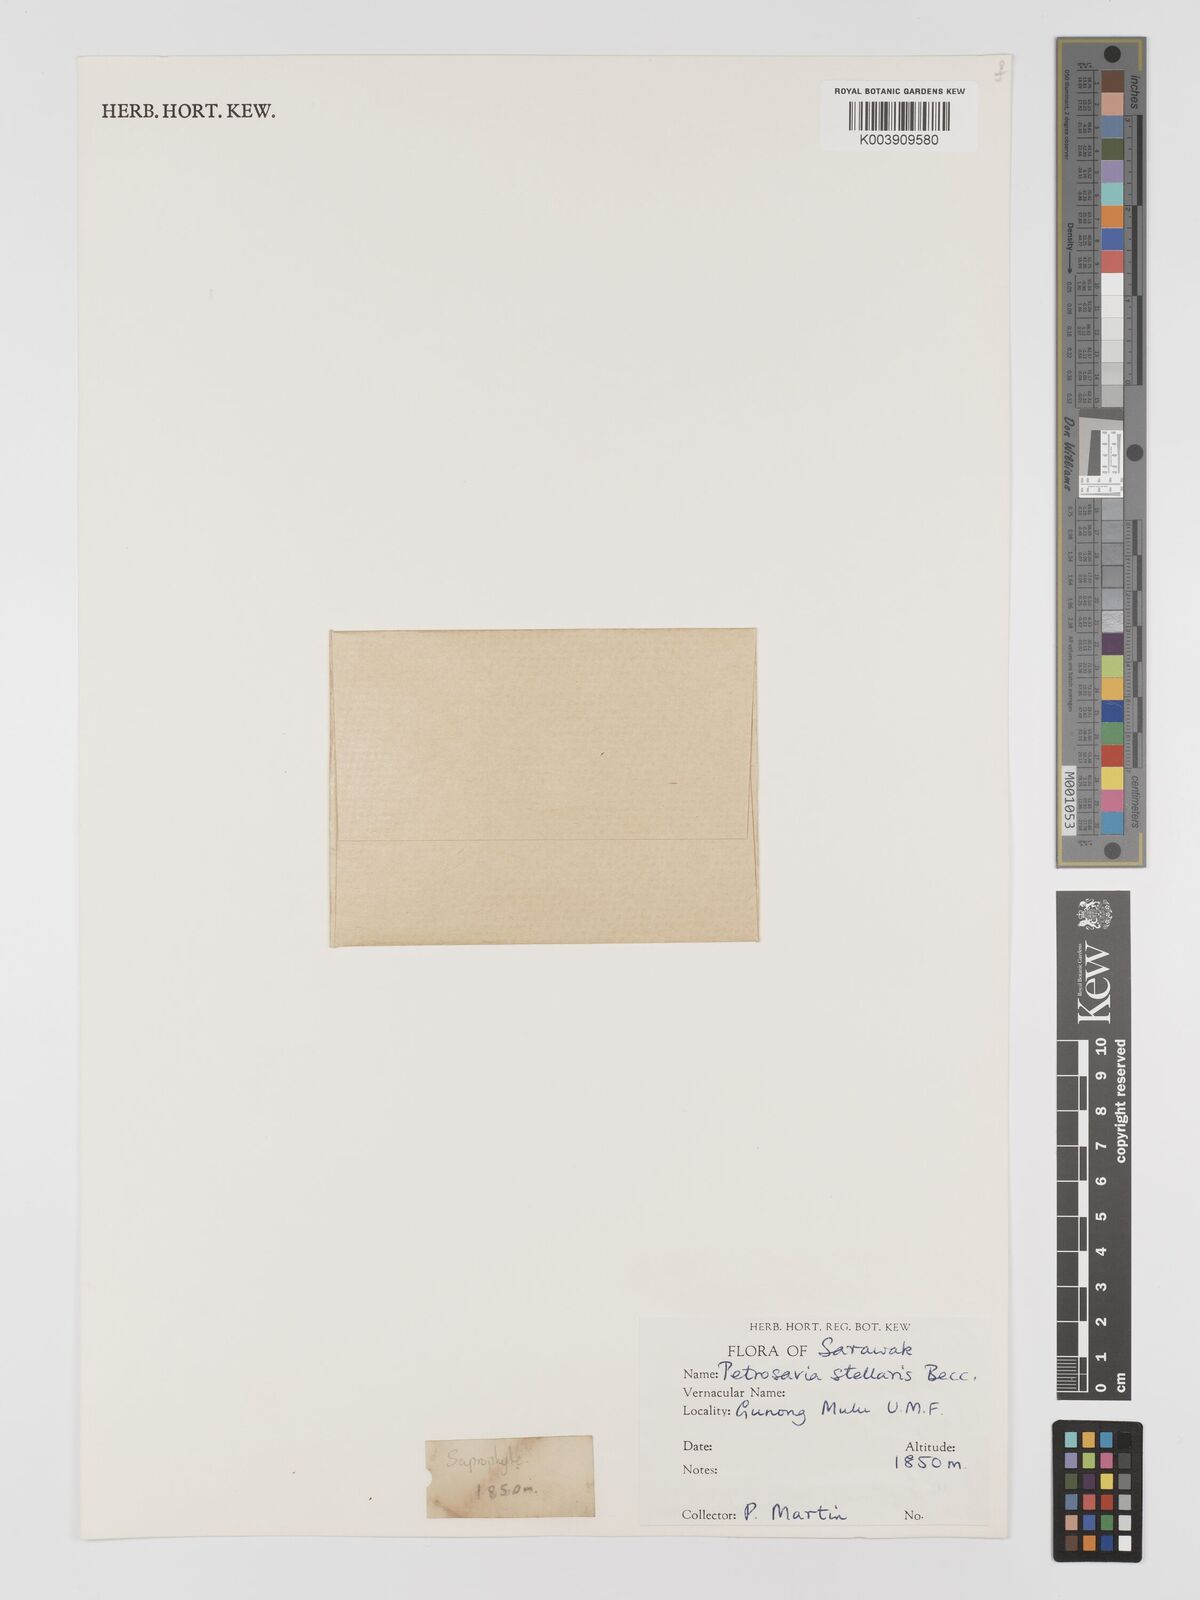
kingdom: Plantae
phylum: Tracheophyta
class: Liliopsida
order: Petrosaviales
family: Petrosaviaceae
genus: Petrosavia
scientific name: Petrosavia stellaris
